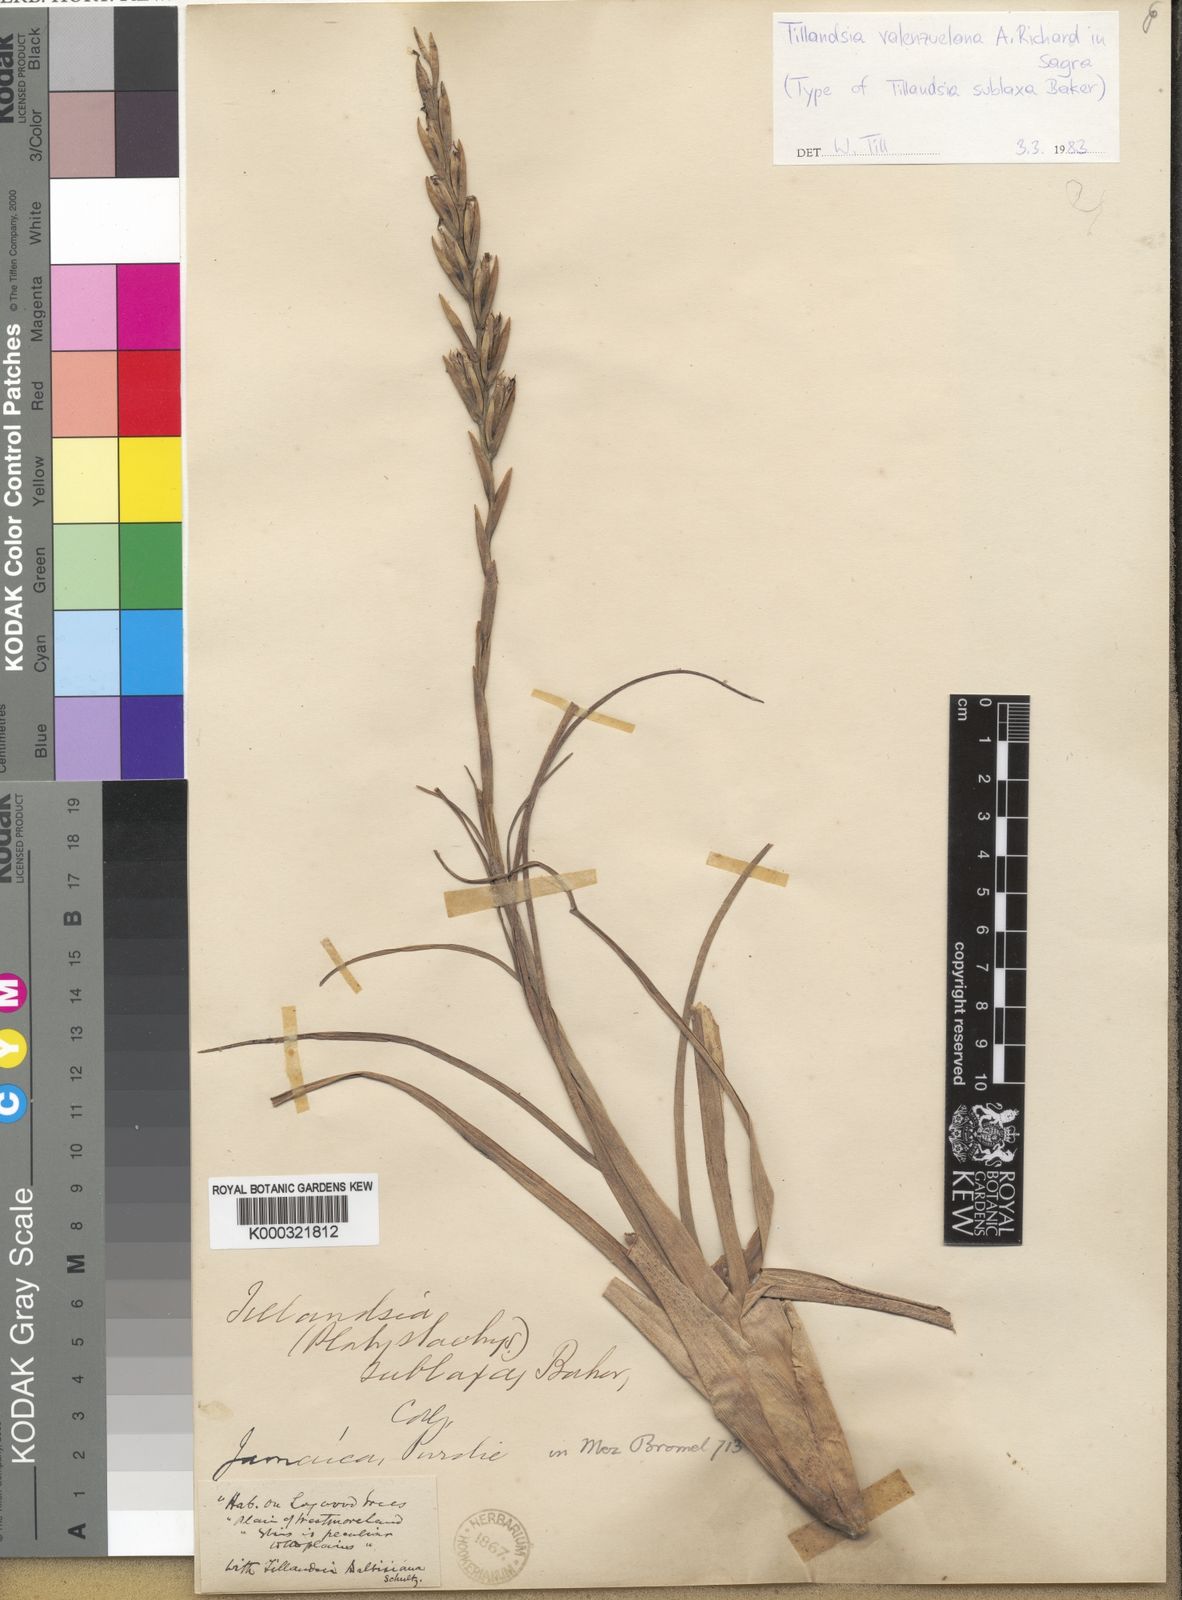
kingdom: Plantae
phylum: Tracheophyta
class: Liliopsida
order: Poales
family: Bromeliaceae
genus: Tillandsia
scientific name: Tillandsia variabilis
